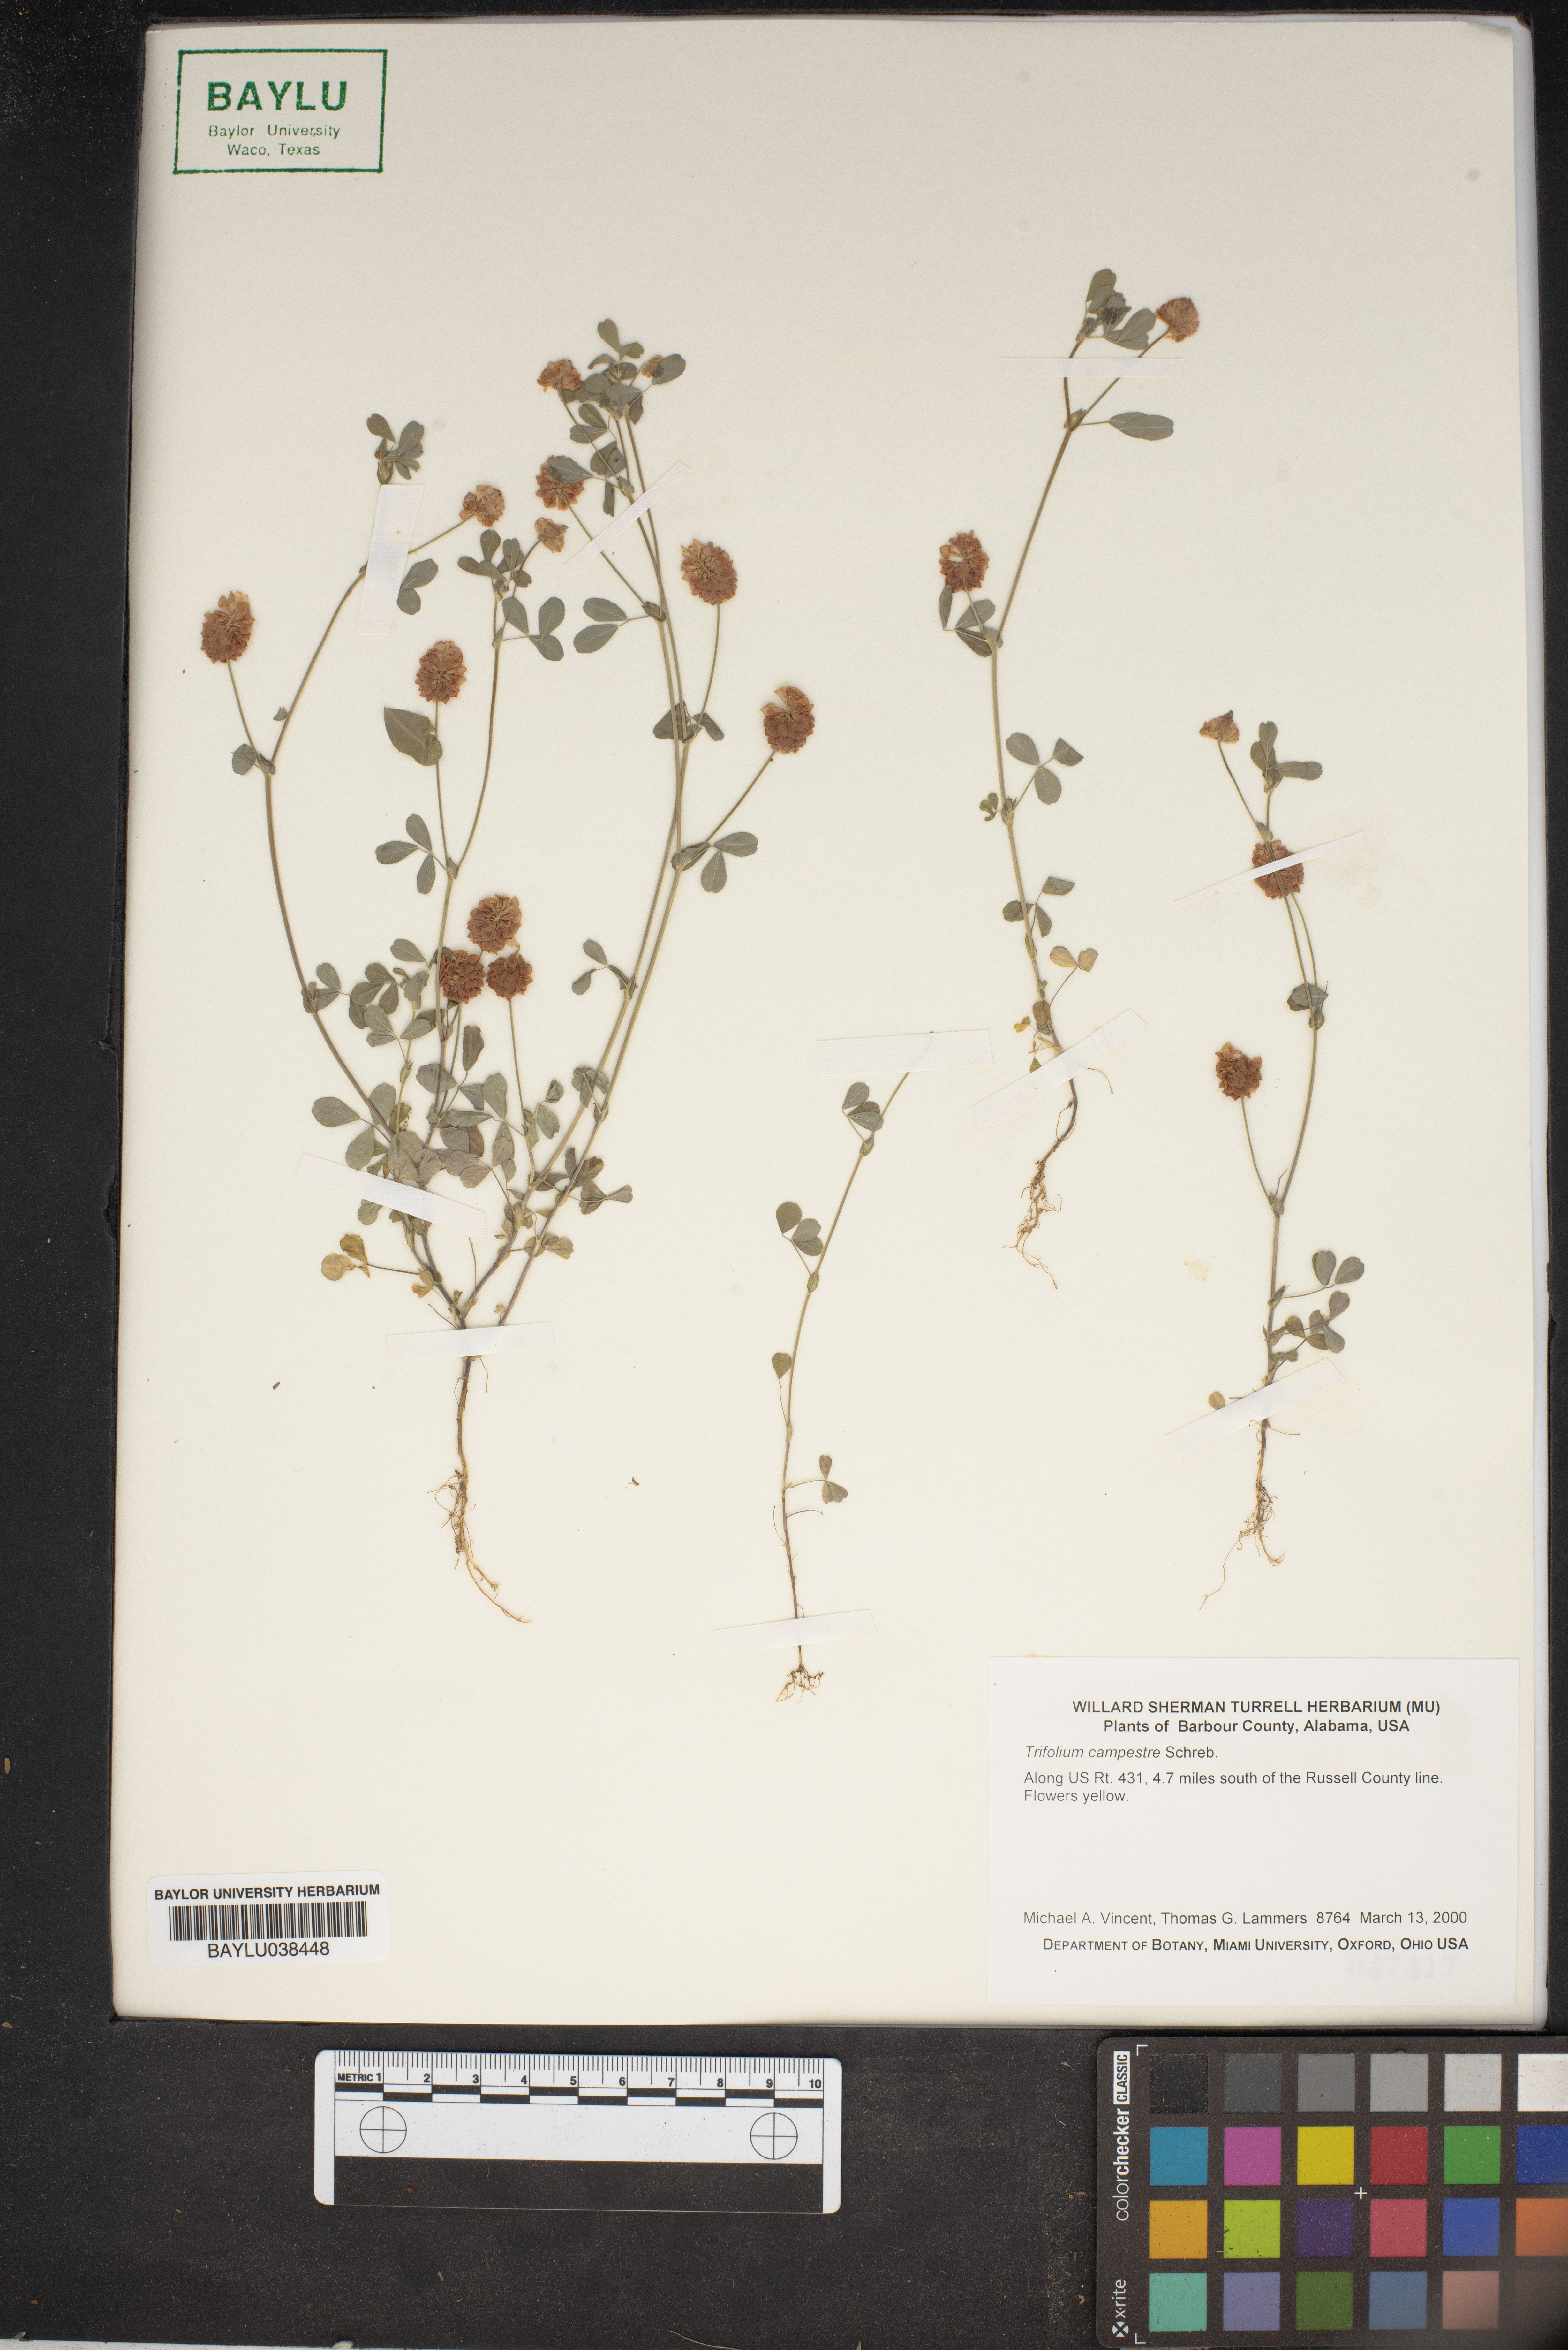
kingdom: Plantae
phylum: Tracheophyta
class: Magnoliopsida
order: Fabales
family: Fabaceae
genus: Trifolium
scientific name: Trifolium campestre
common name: Field clover
